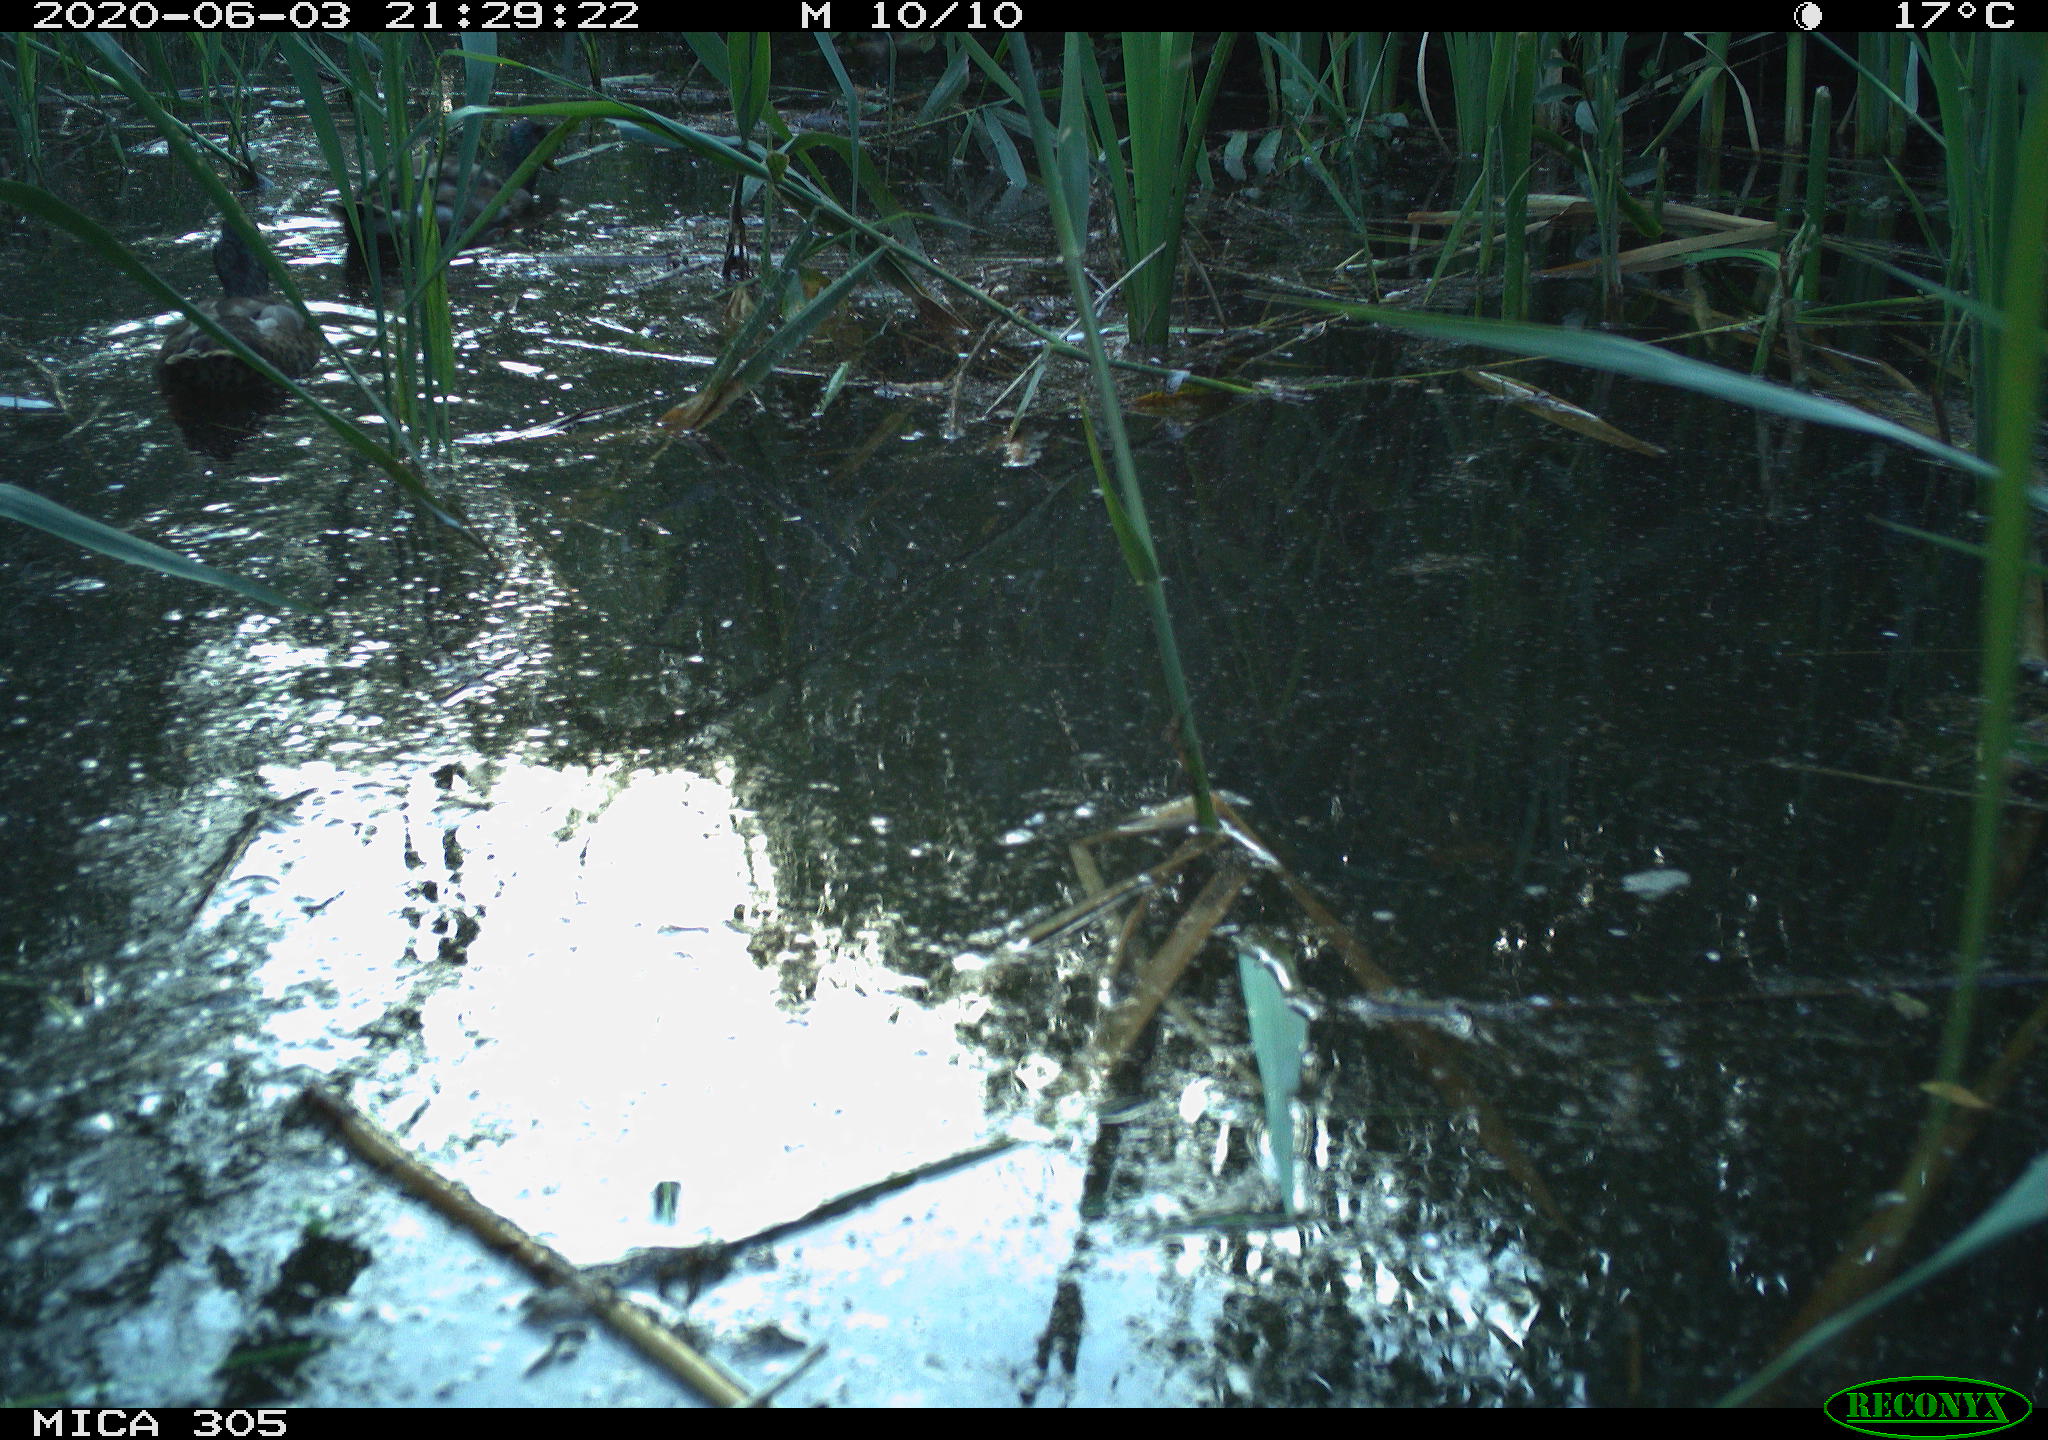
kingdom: Animalia
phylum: Chordata
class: Aves
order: Anseriformes
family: Anatidae
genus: Anas
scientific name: Anas platyrhynchos
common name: Mallard
